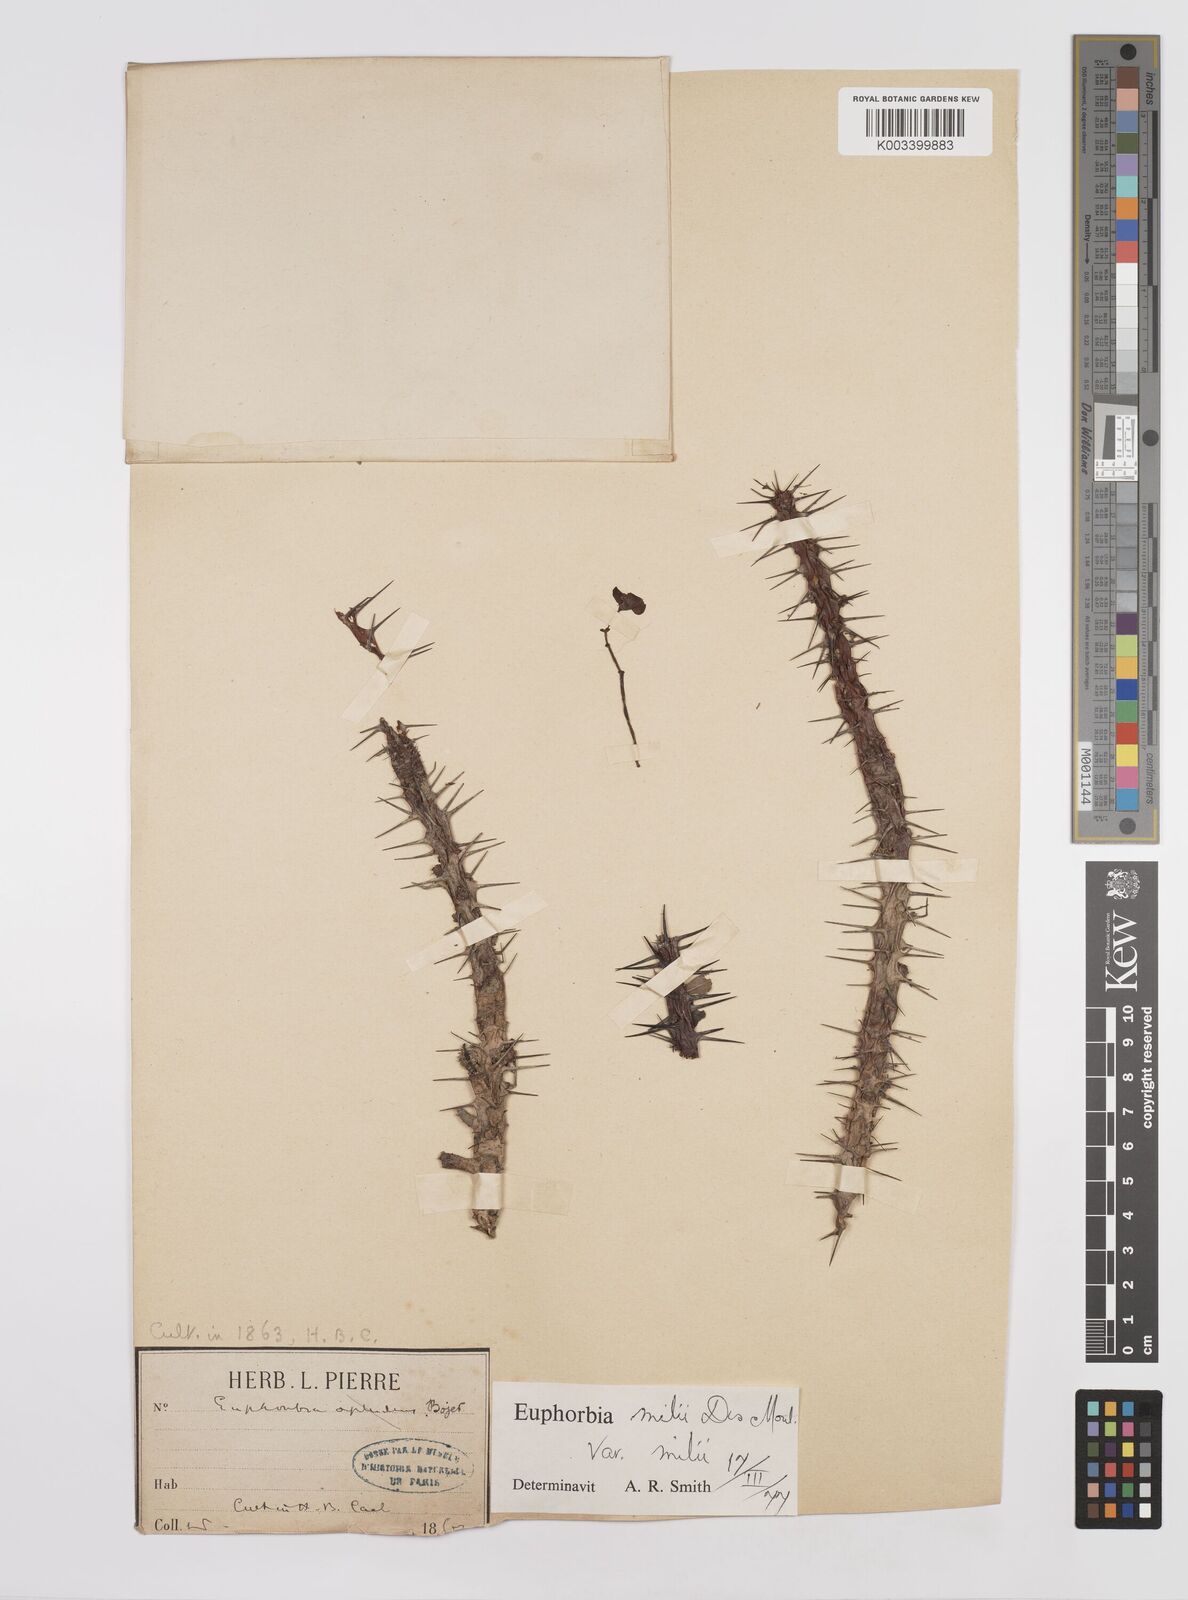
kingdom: Plantae
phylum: Tracheophyta
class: Magnoliopsida
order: Malpighiales
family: Euphorbiaceae
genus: Euphorbia
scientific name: Euphorbia milii
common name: Christplant
